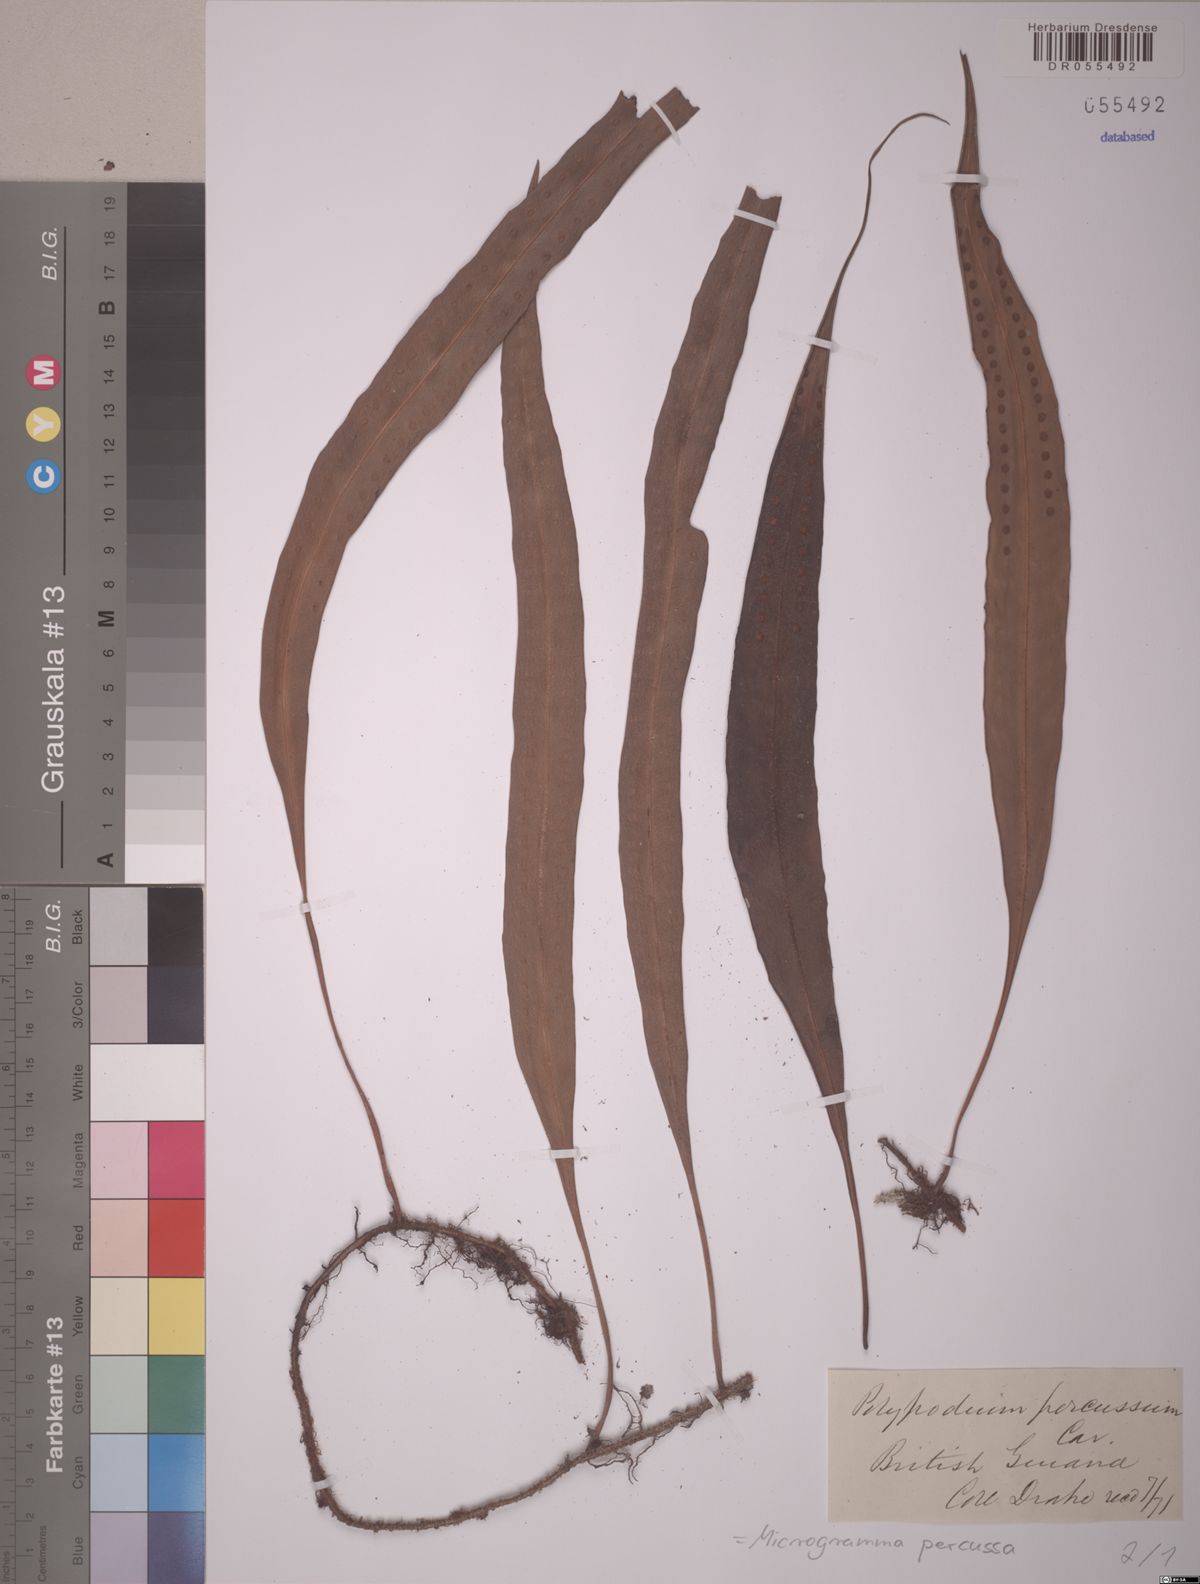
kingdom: Plantae
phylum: Tracheophyta
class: Polypodiopsida
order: Polypodiales
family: Polypodiaceae
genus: Microgramma
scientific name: Microgramma percussa
